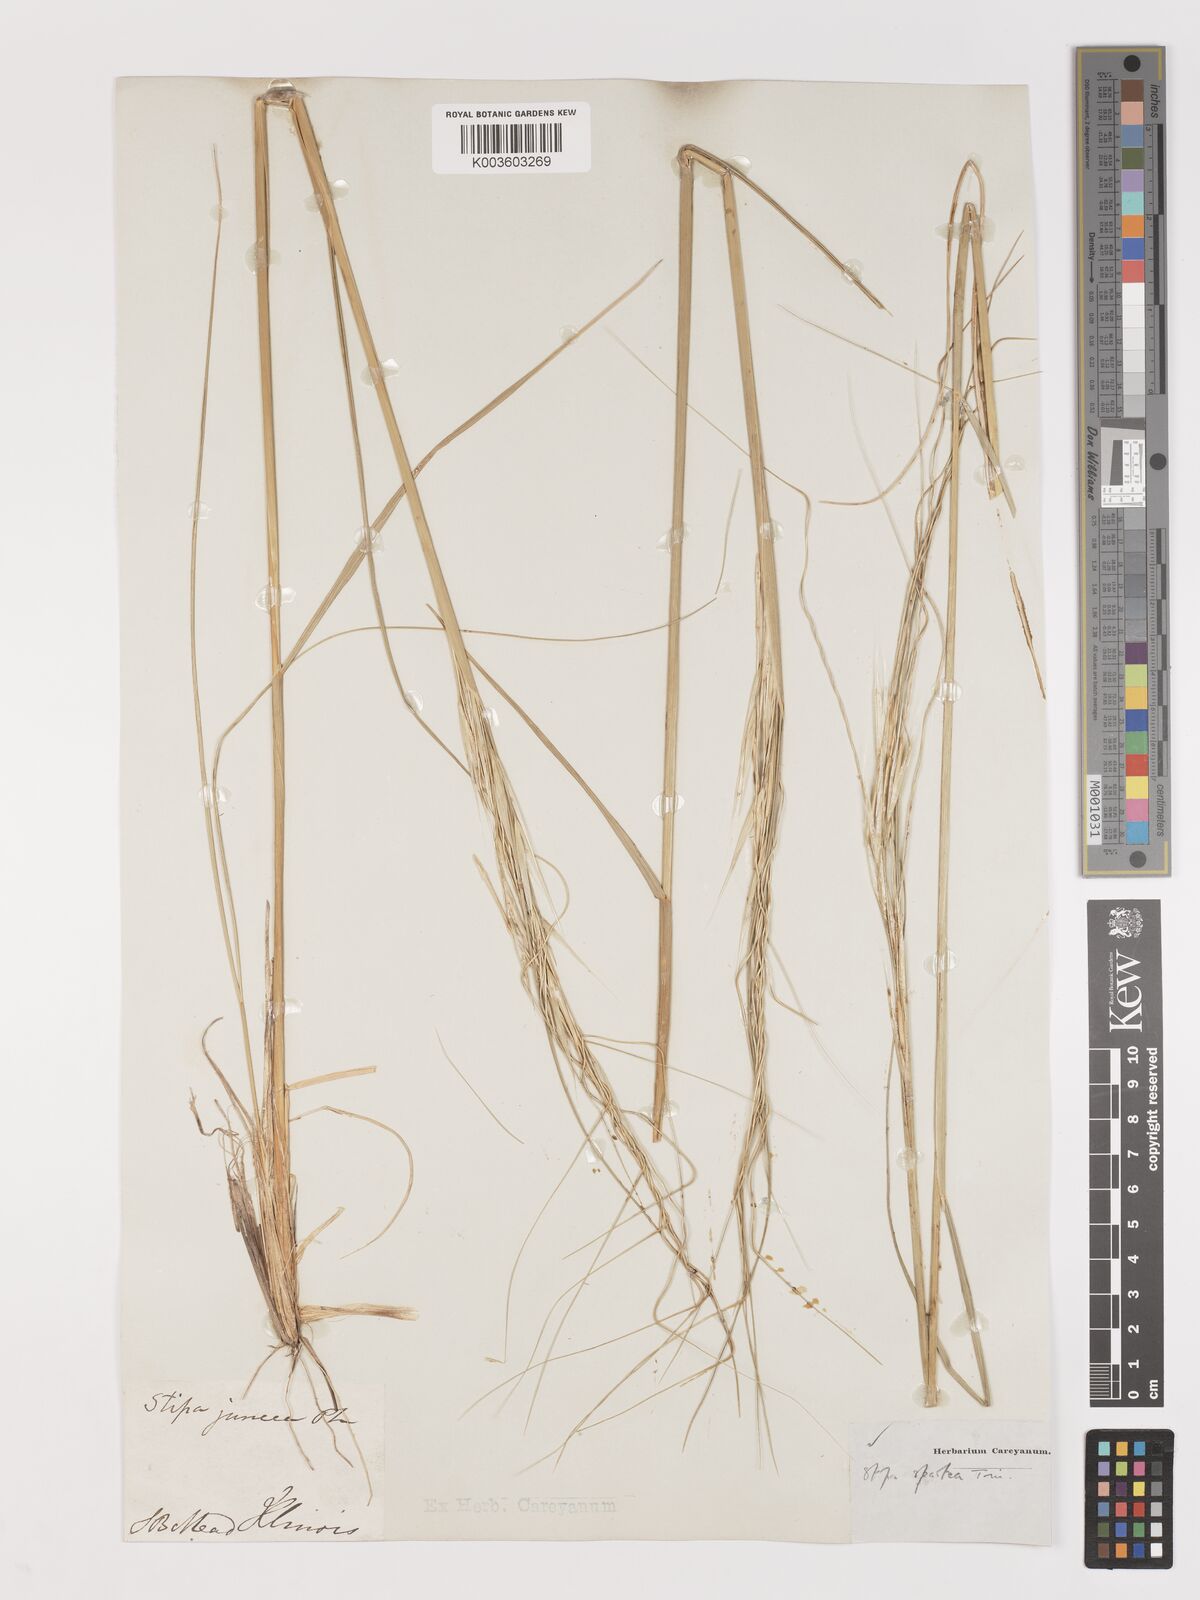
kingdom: Plantae
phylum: Tracheophyta
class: Liliopsida
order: Poales
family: Poaceae
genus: Hesperostipa
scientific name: Hesperostipa spartea
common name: Porcupine grass
